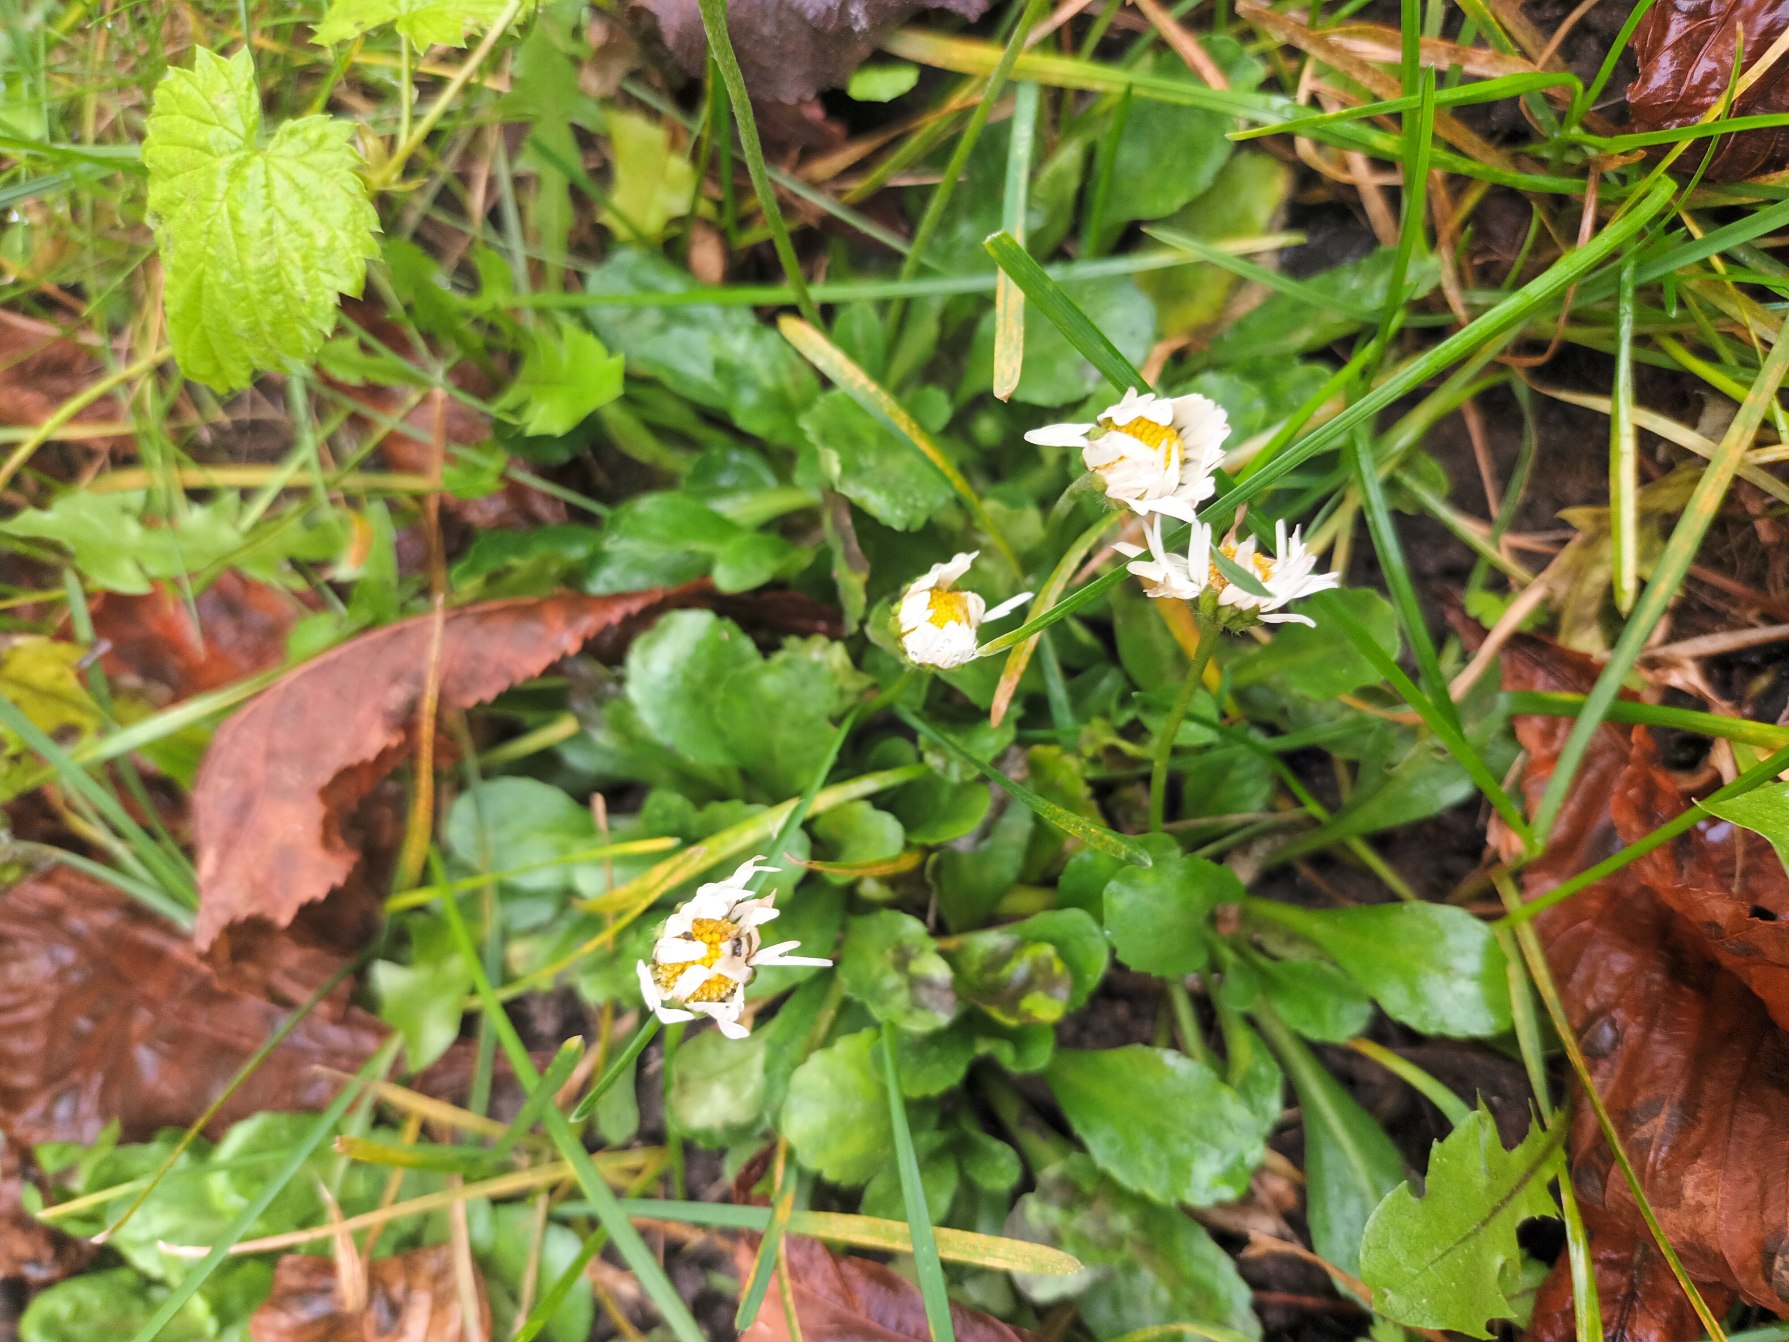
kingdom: Plantae
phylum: Tracheophyta
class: Magnoliopsida
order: Asterales
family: Asteraceae
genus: Bellis
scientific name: Bellis perennis
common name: Tusindfryd
